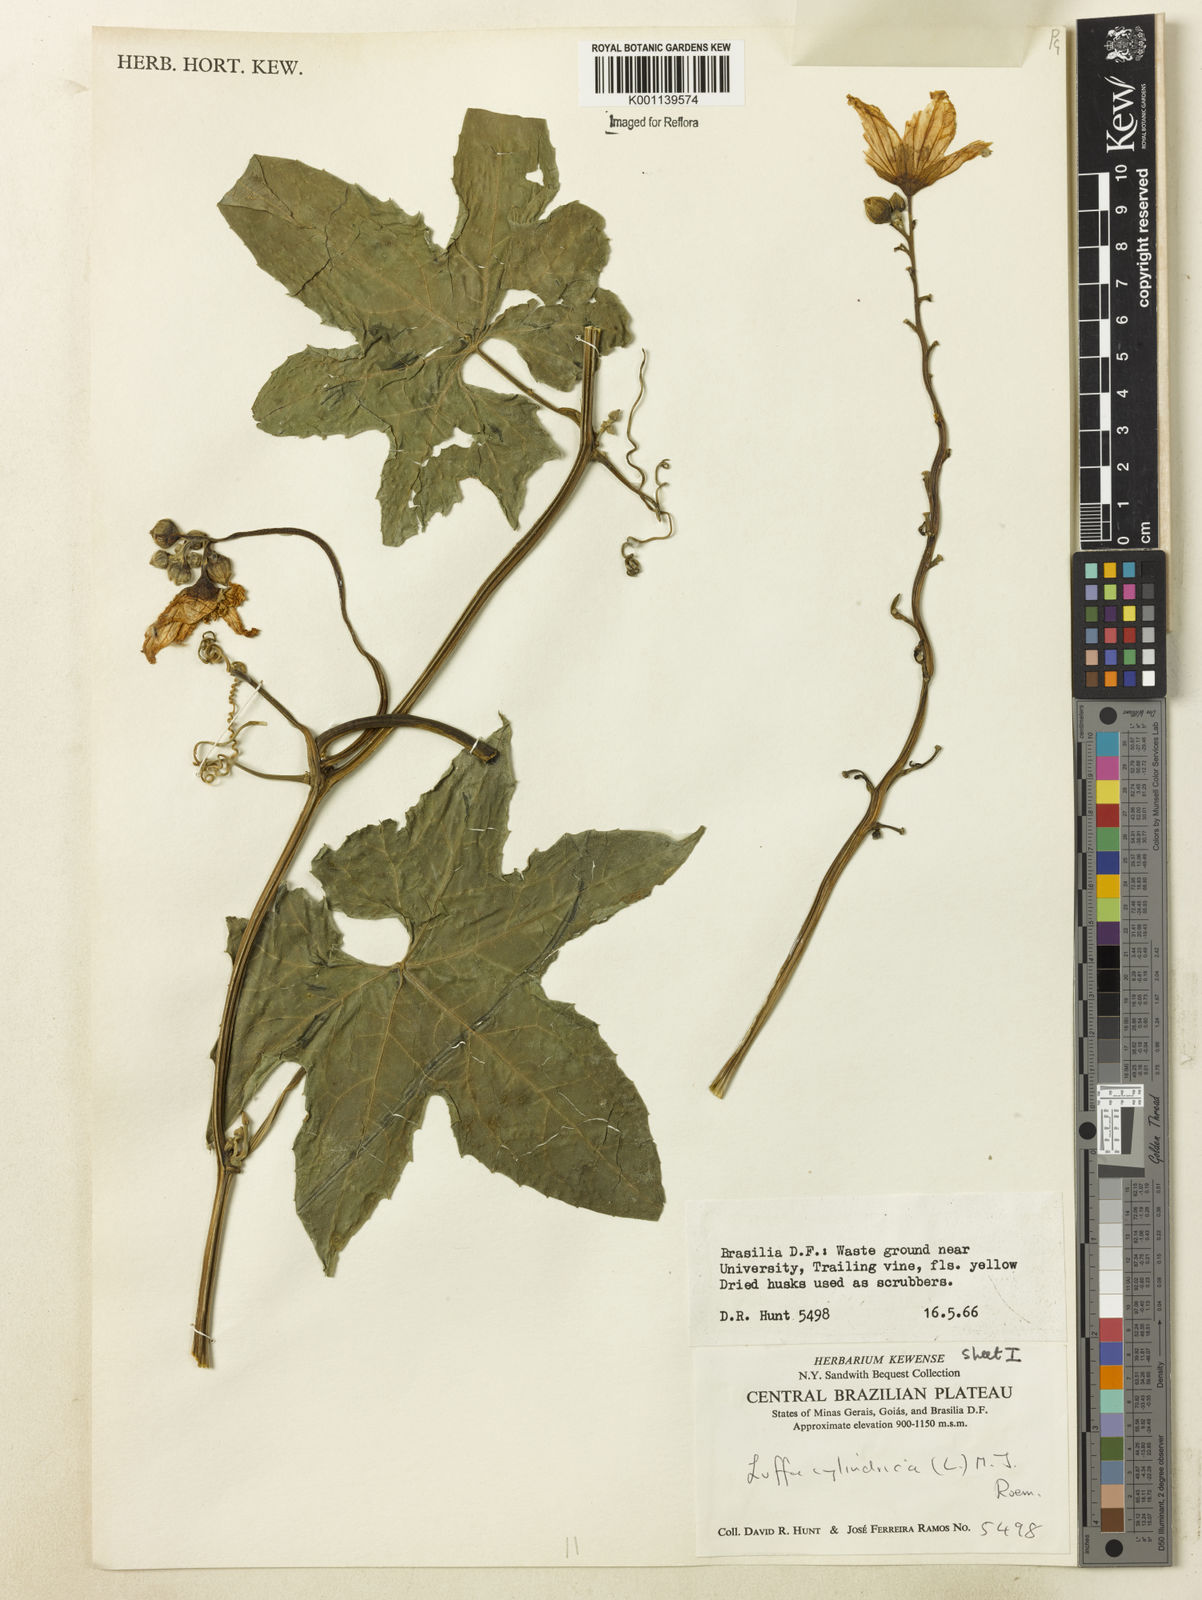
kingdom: Plantae
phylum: Tracheophyta
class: Magnoliopsida
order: Cucurbitales
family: Cucurbitaceae
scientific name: Cucurbitaceae
